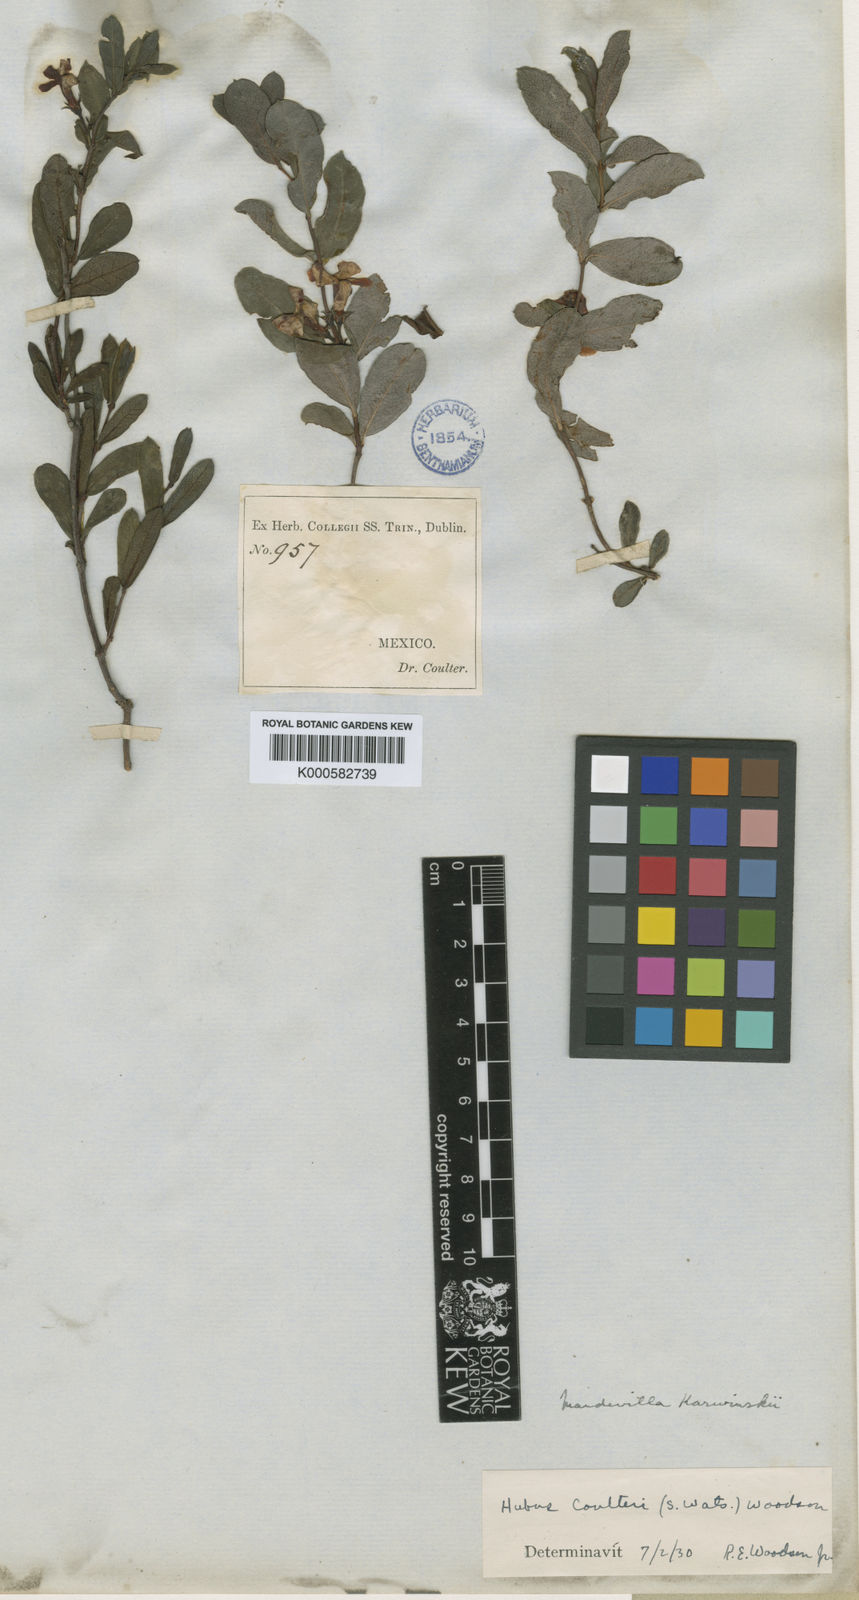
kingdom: Plantae
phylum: Tracheophyta
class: Magnoliopsida
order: Gentianales
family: Apocynaceae
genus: Mandevilla
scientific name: Mandevilla
